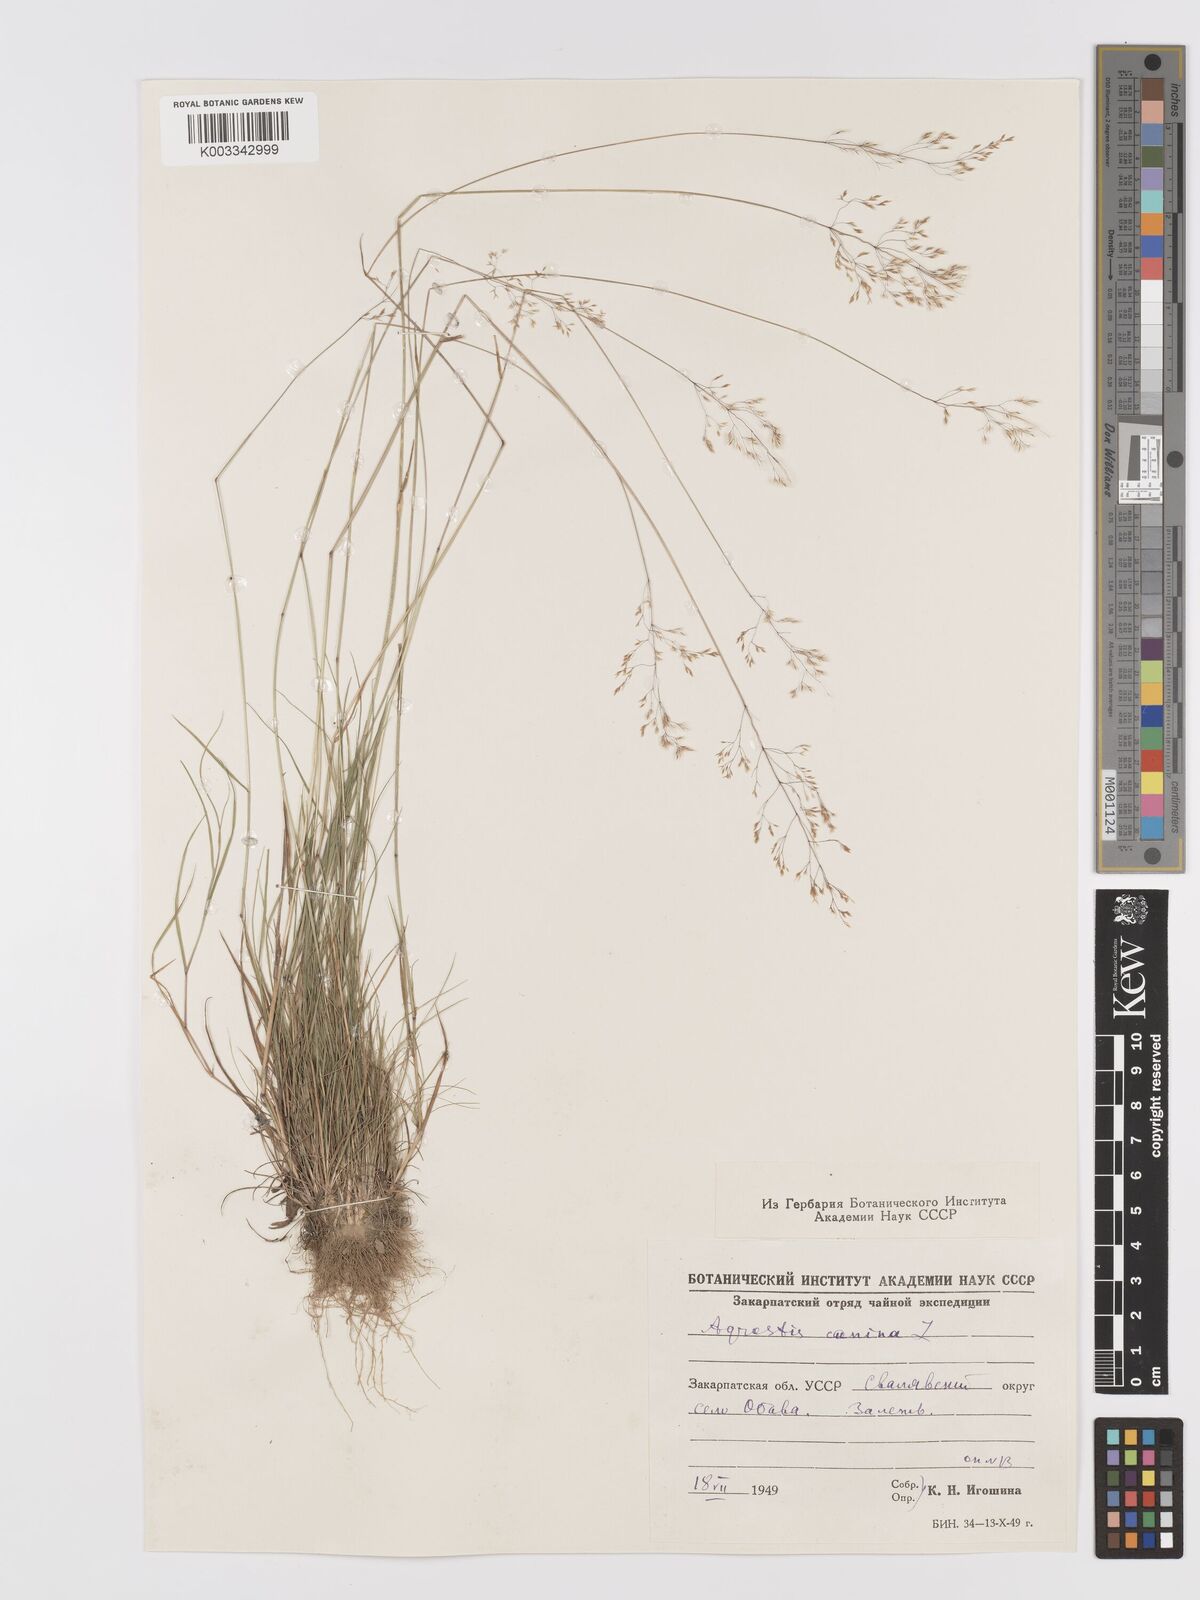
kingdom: Plantae
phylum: Tracheophyta
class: Liliopsida
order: Poales
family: Poaceae
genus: Agrostis
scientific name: Agrostis canina
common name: Velvet bent
